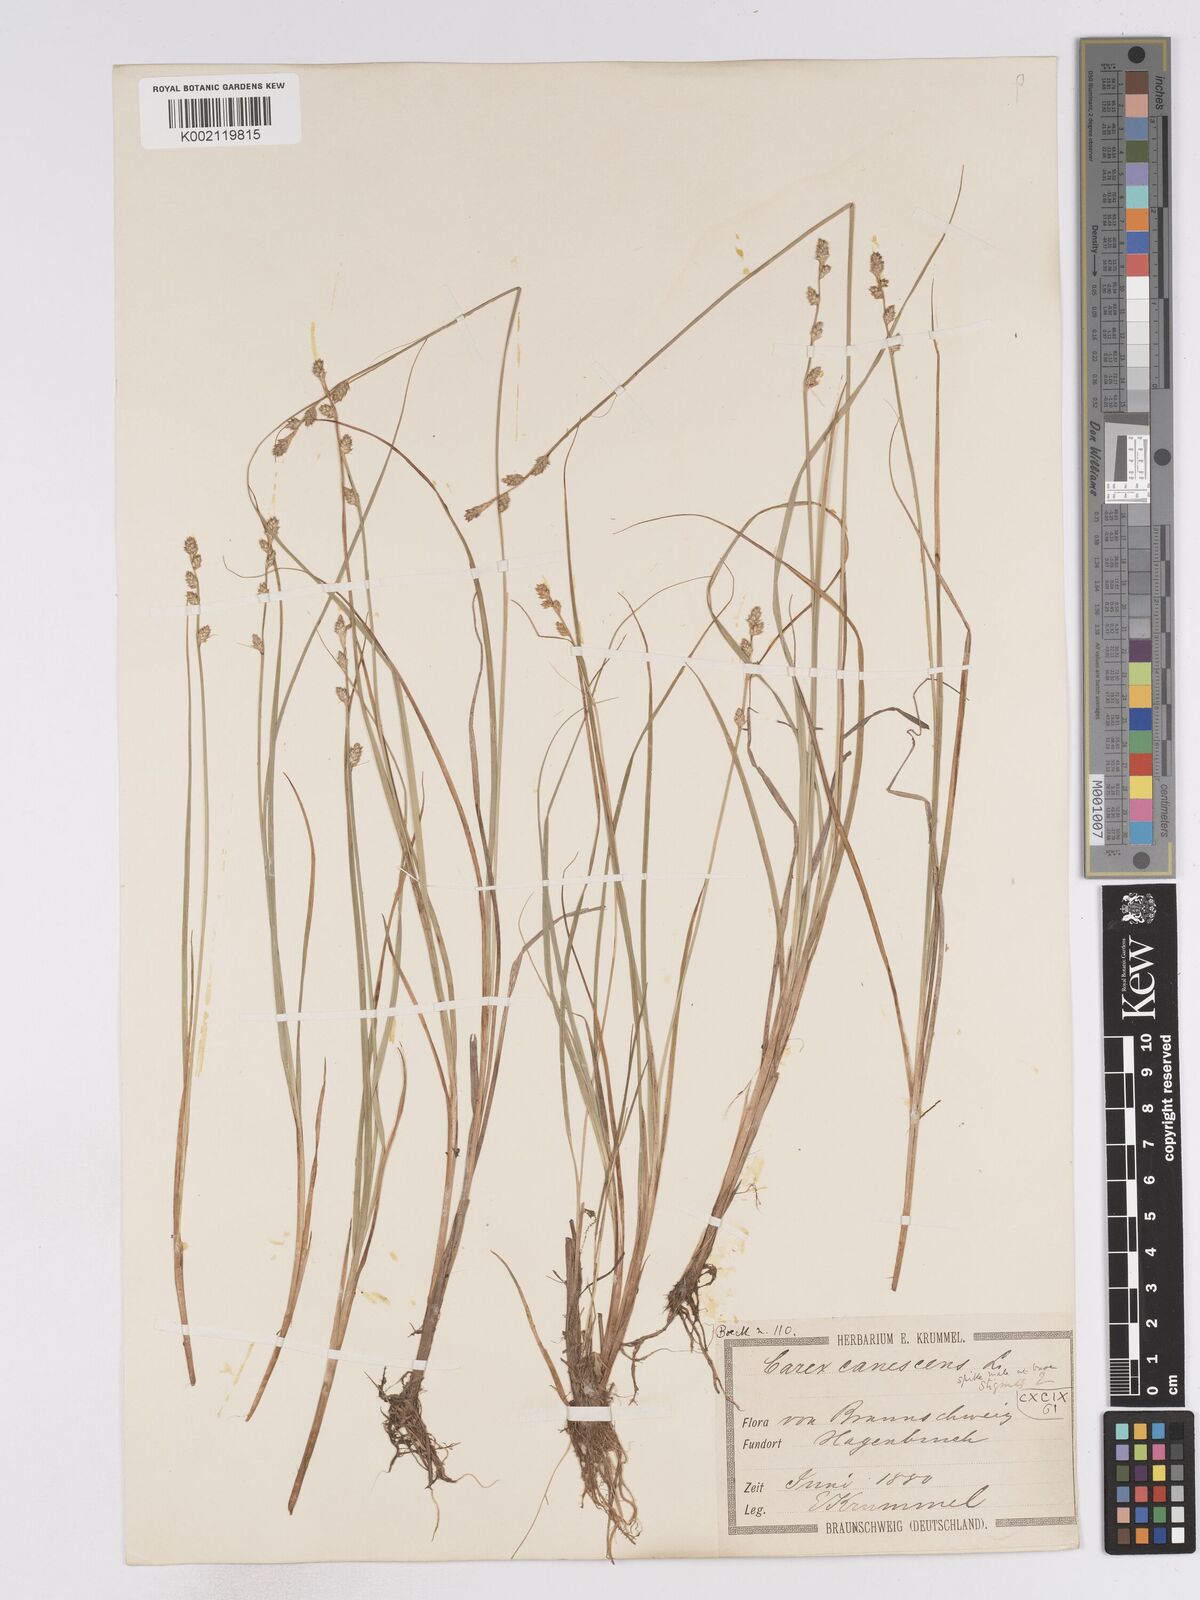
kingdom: Plantae
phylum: Tracheophyta
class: Liliopsida
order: Poales
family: Cyperaceae
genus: Carex
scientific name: Carex curta
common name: White sedge
